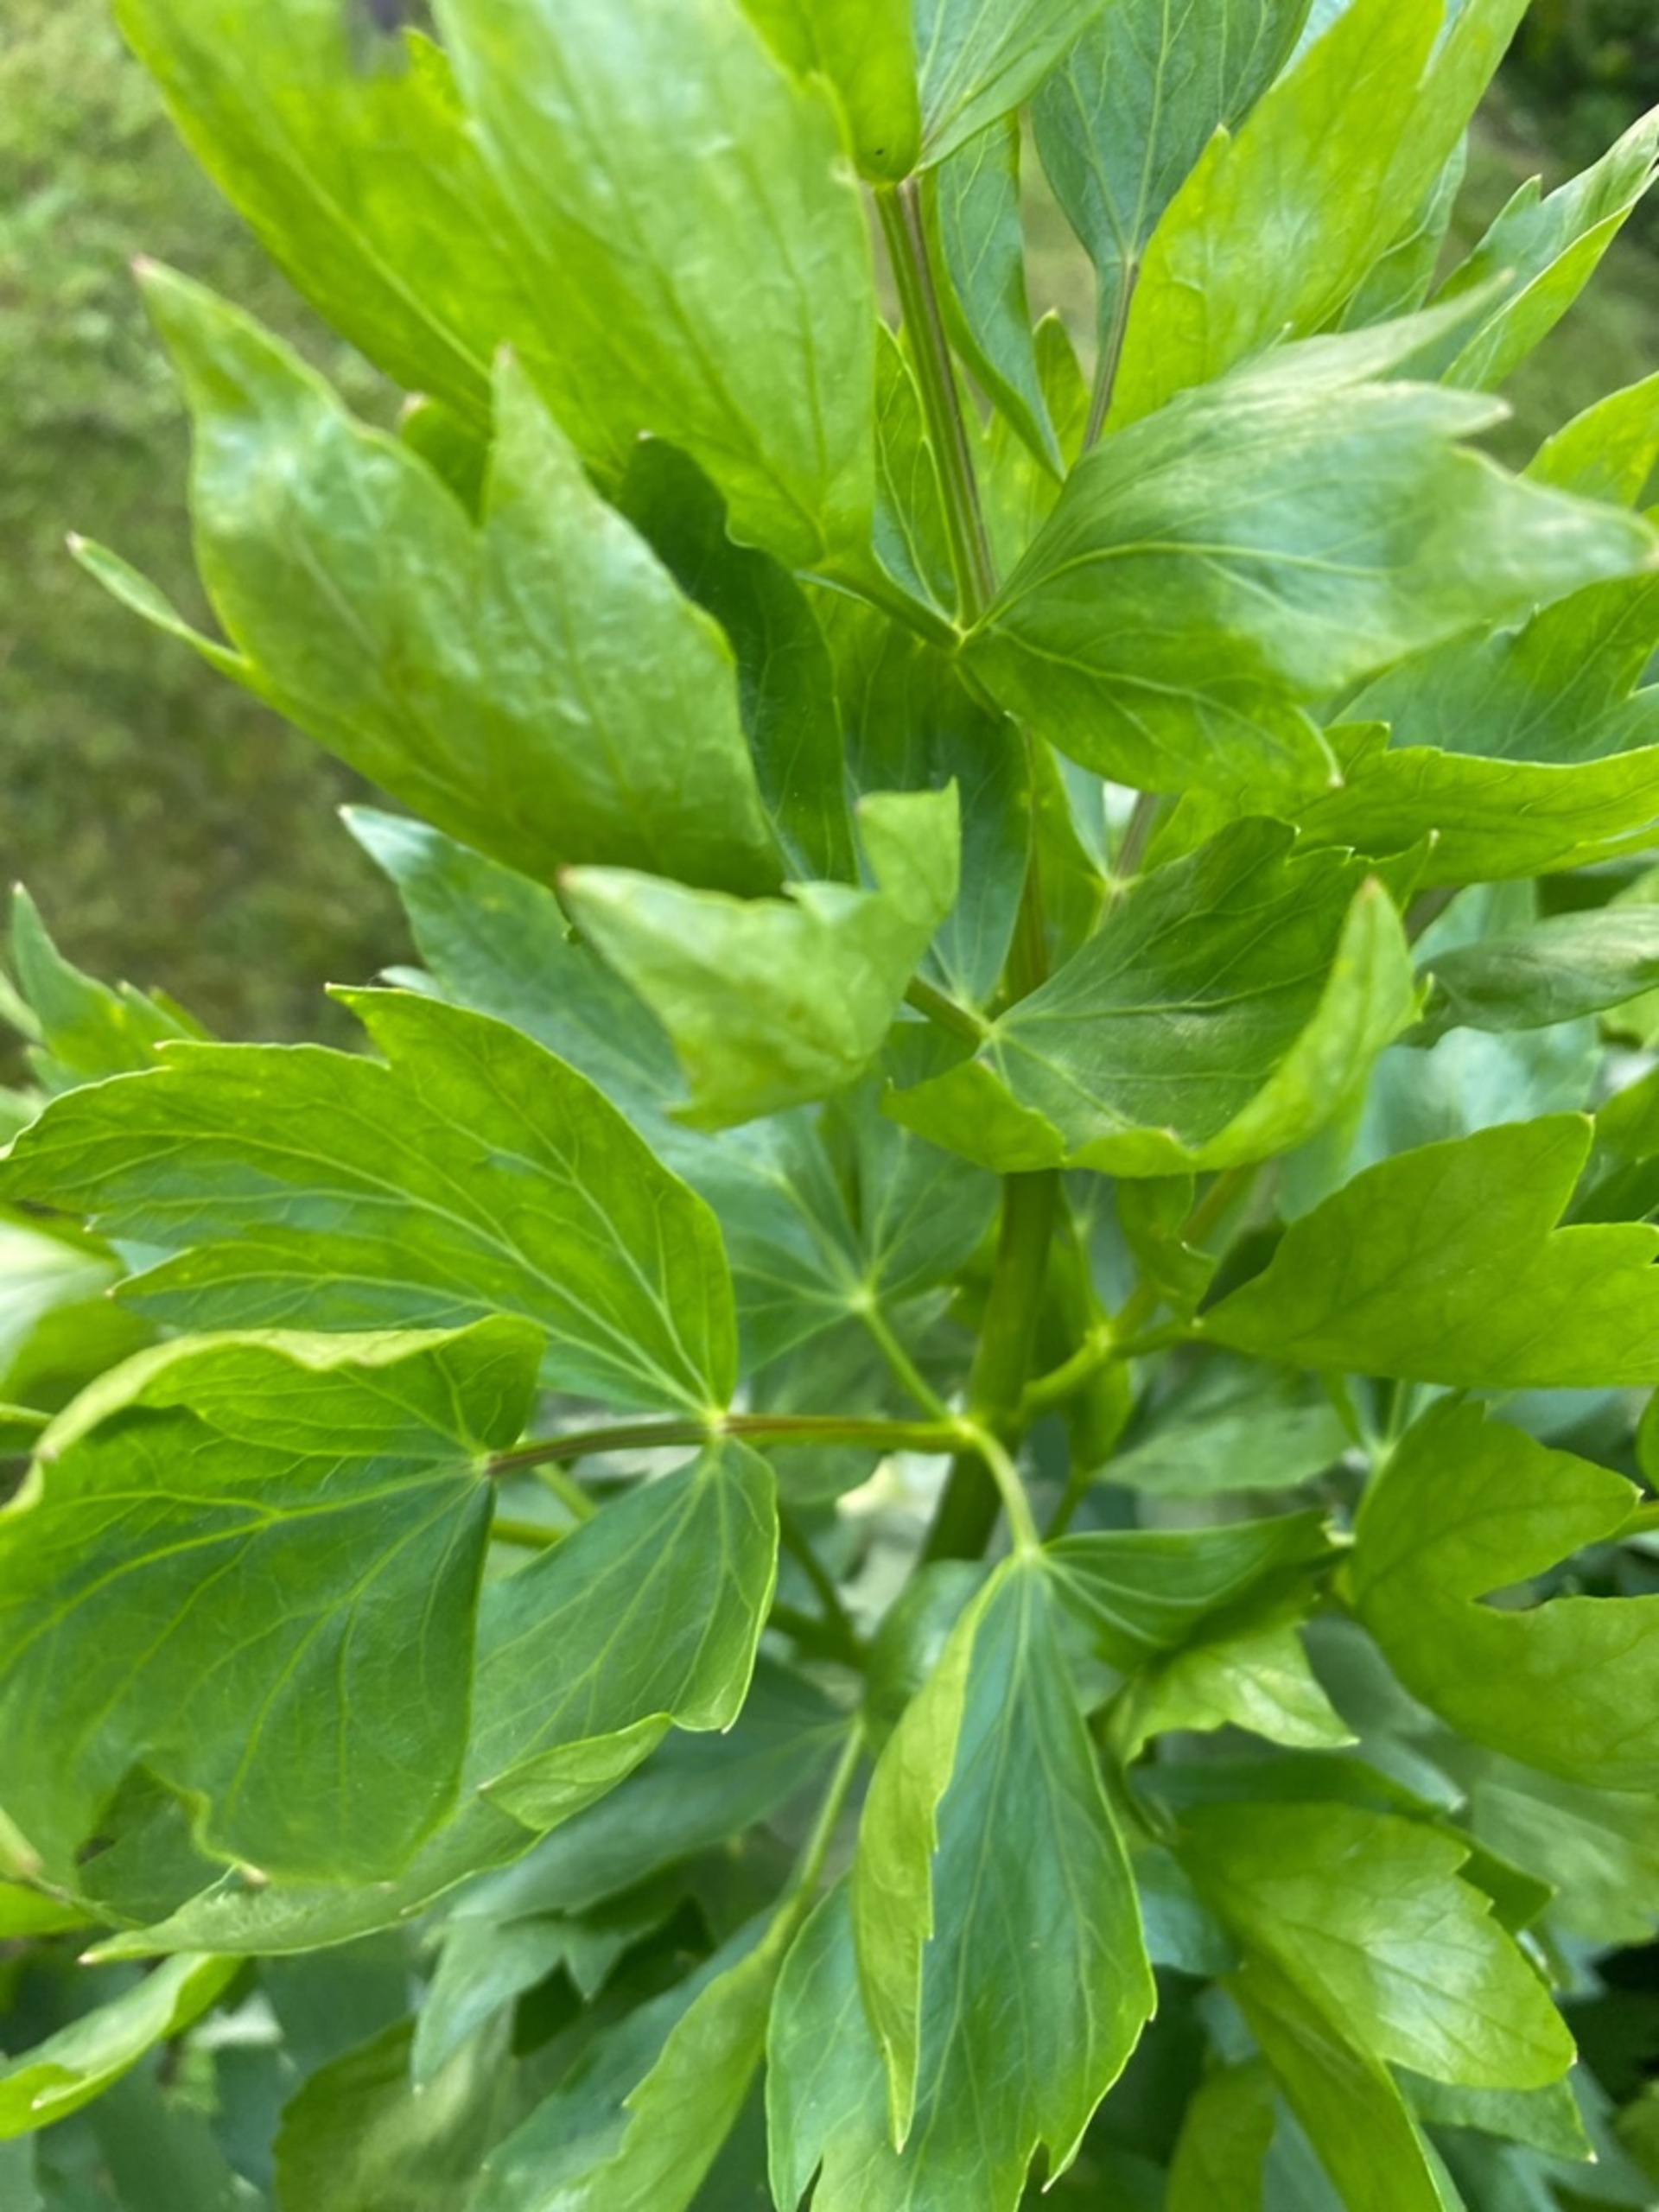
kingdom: Plantae
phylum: Tracheophyta
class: Magnoliopsida
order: Apiales
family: Apiaceae
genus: Levisticum
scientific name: Levisticum officinale
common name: Løvstikke
